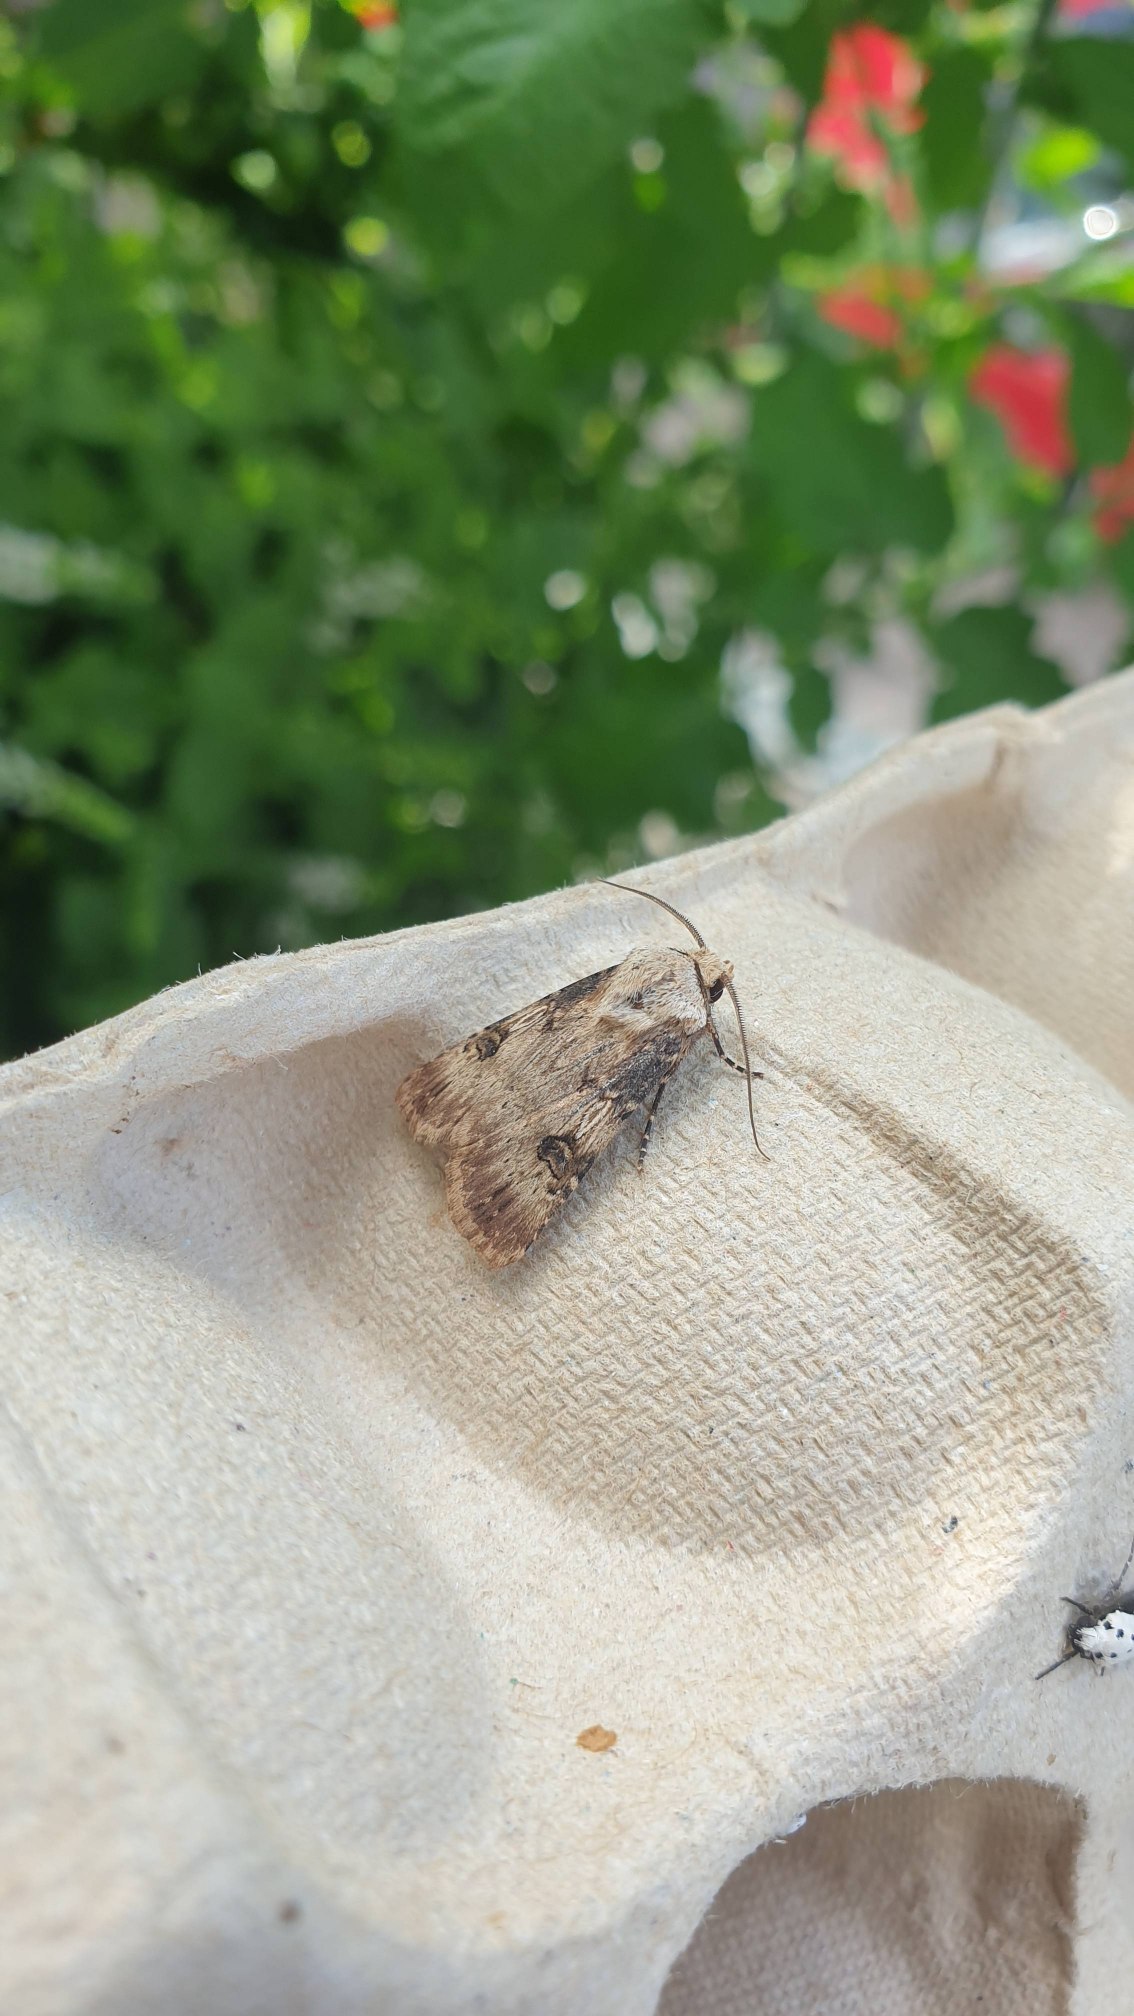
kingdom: Animalia
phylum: Arthropoda
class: Insecta
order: Lepidoptera
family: Noctuidae
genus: Agrotis
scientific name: Agrotis puta
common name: Frønnet landmand
